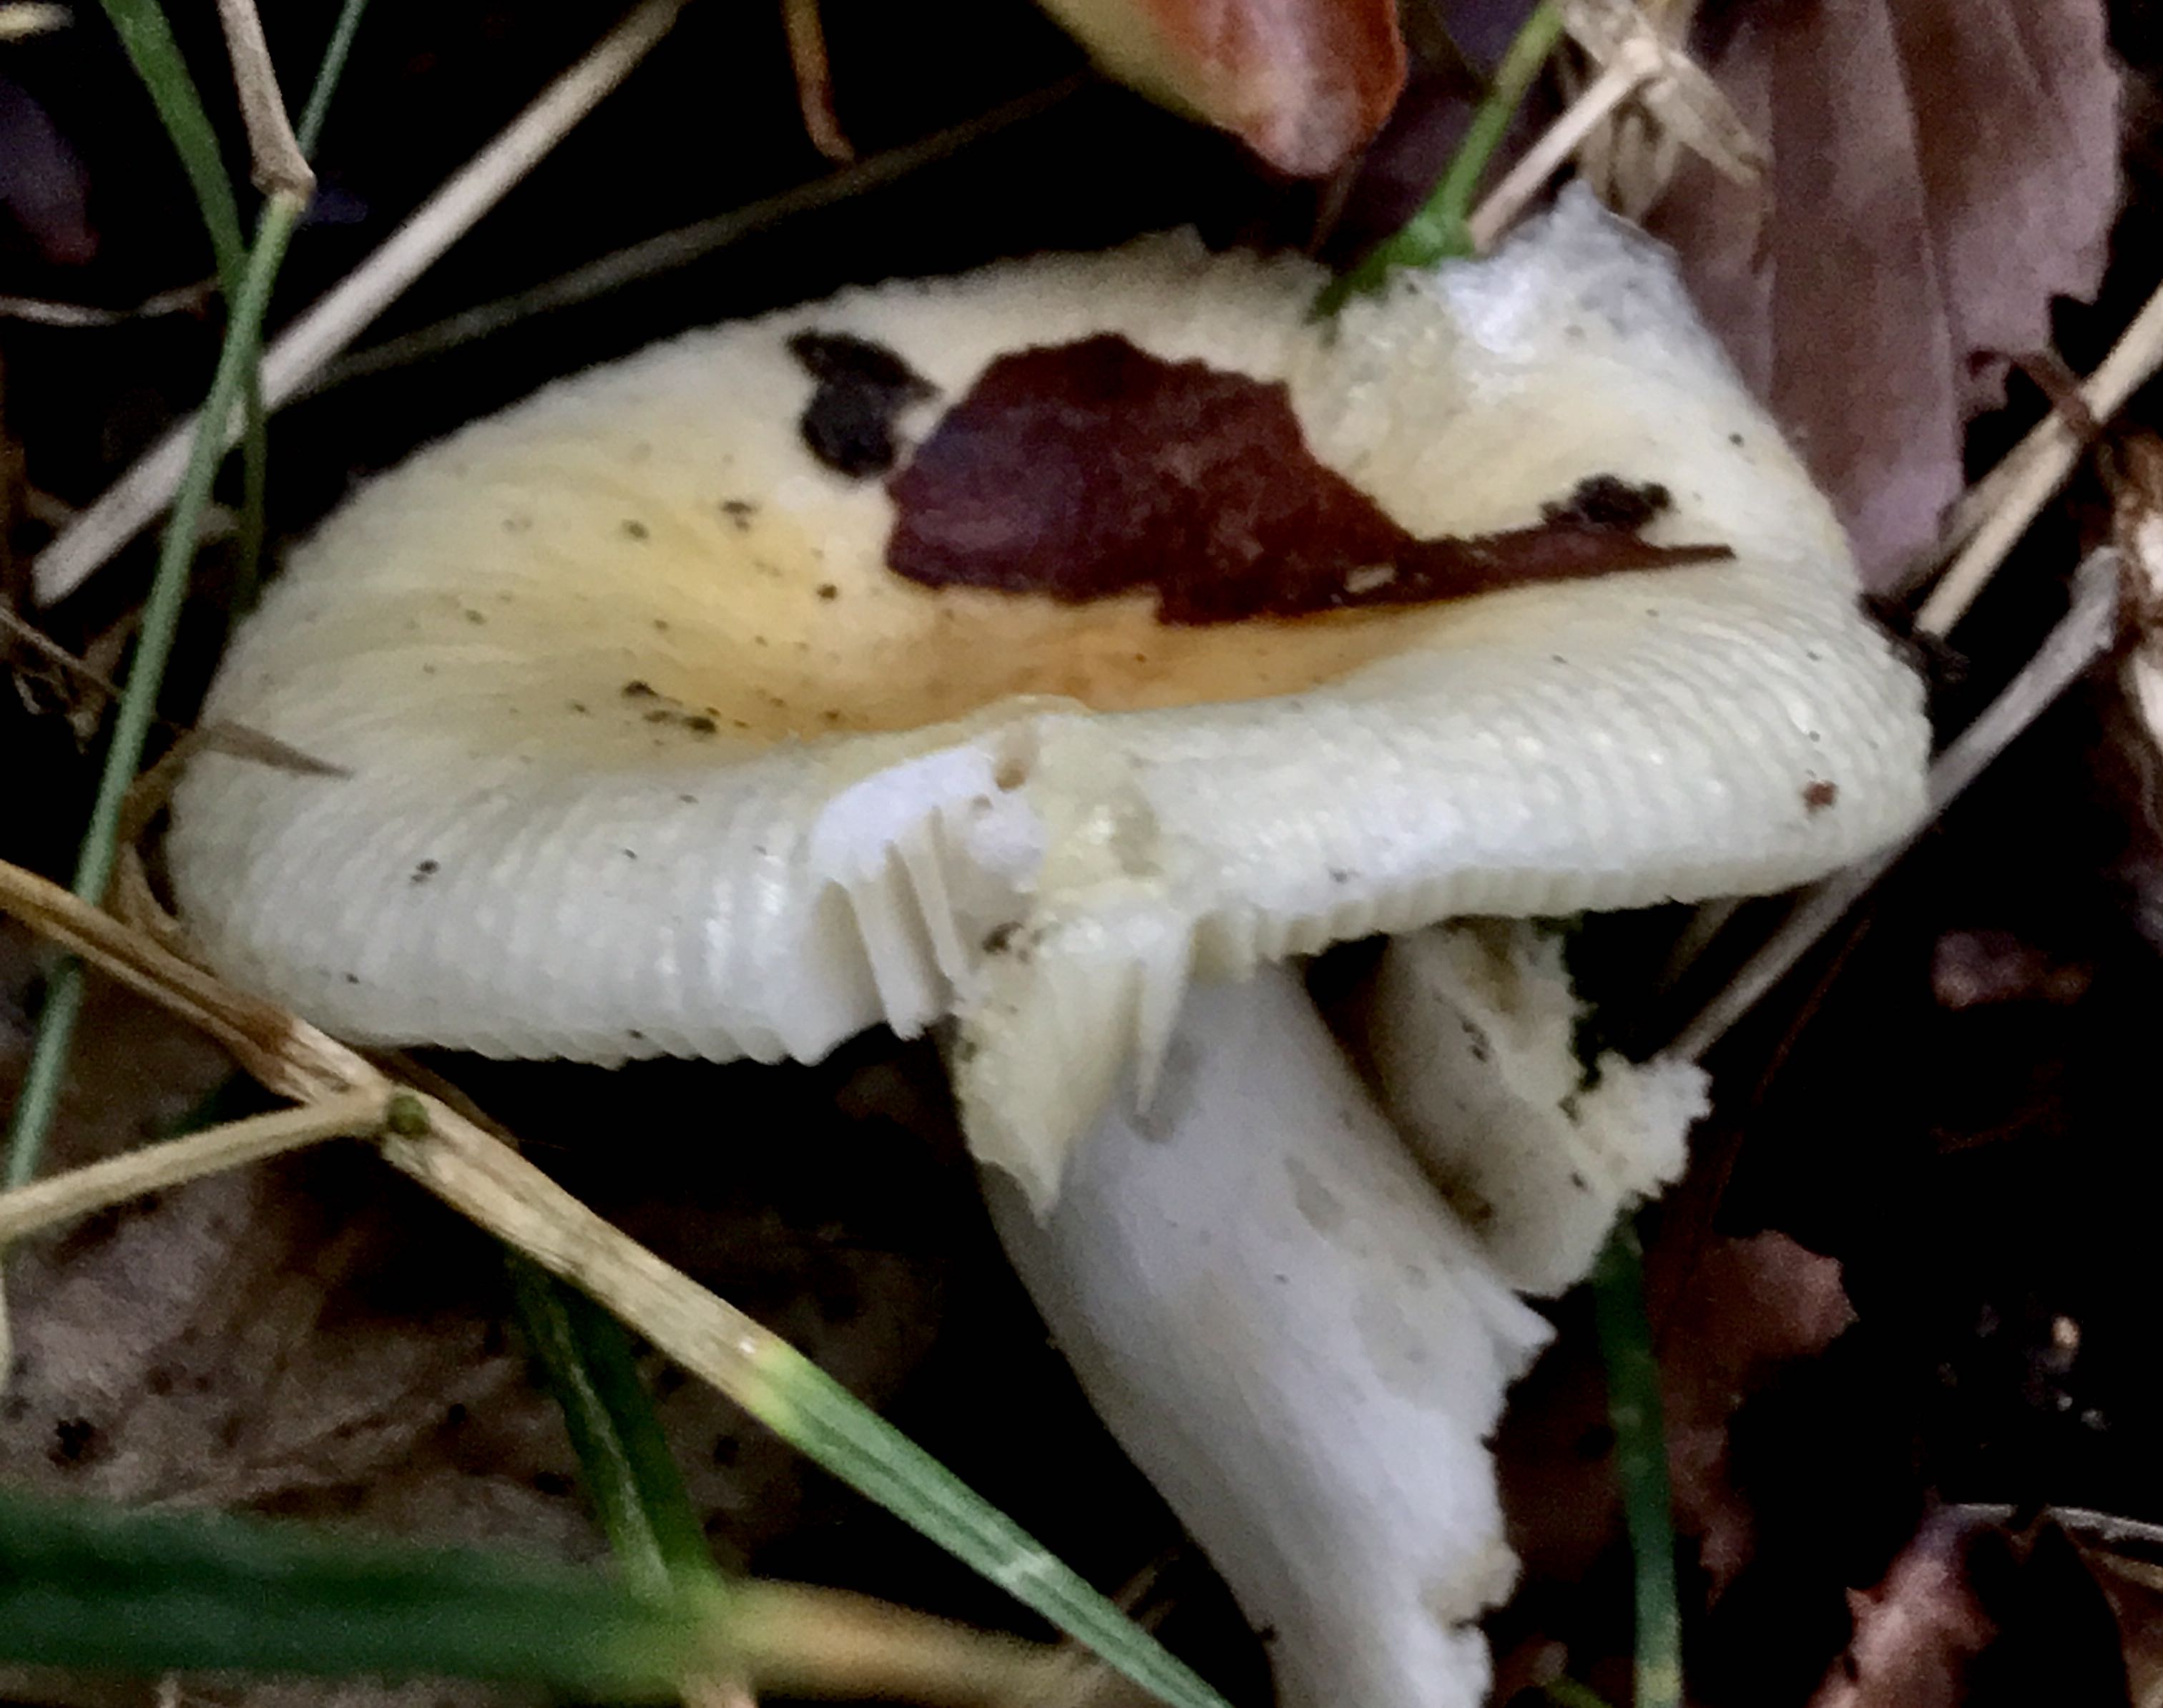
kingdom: Fungi
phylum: Basidiomycota
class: Agaricomycetes
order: Russulales
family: Russulaceae
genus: Russula
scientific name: Russula solaris
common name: sol-skørhat
